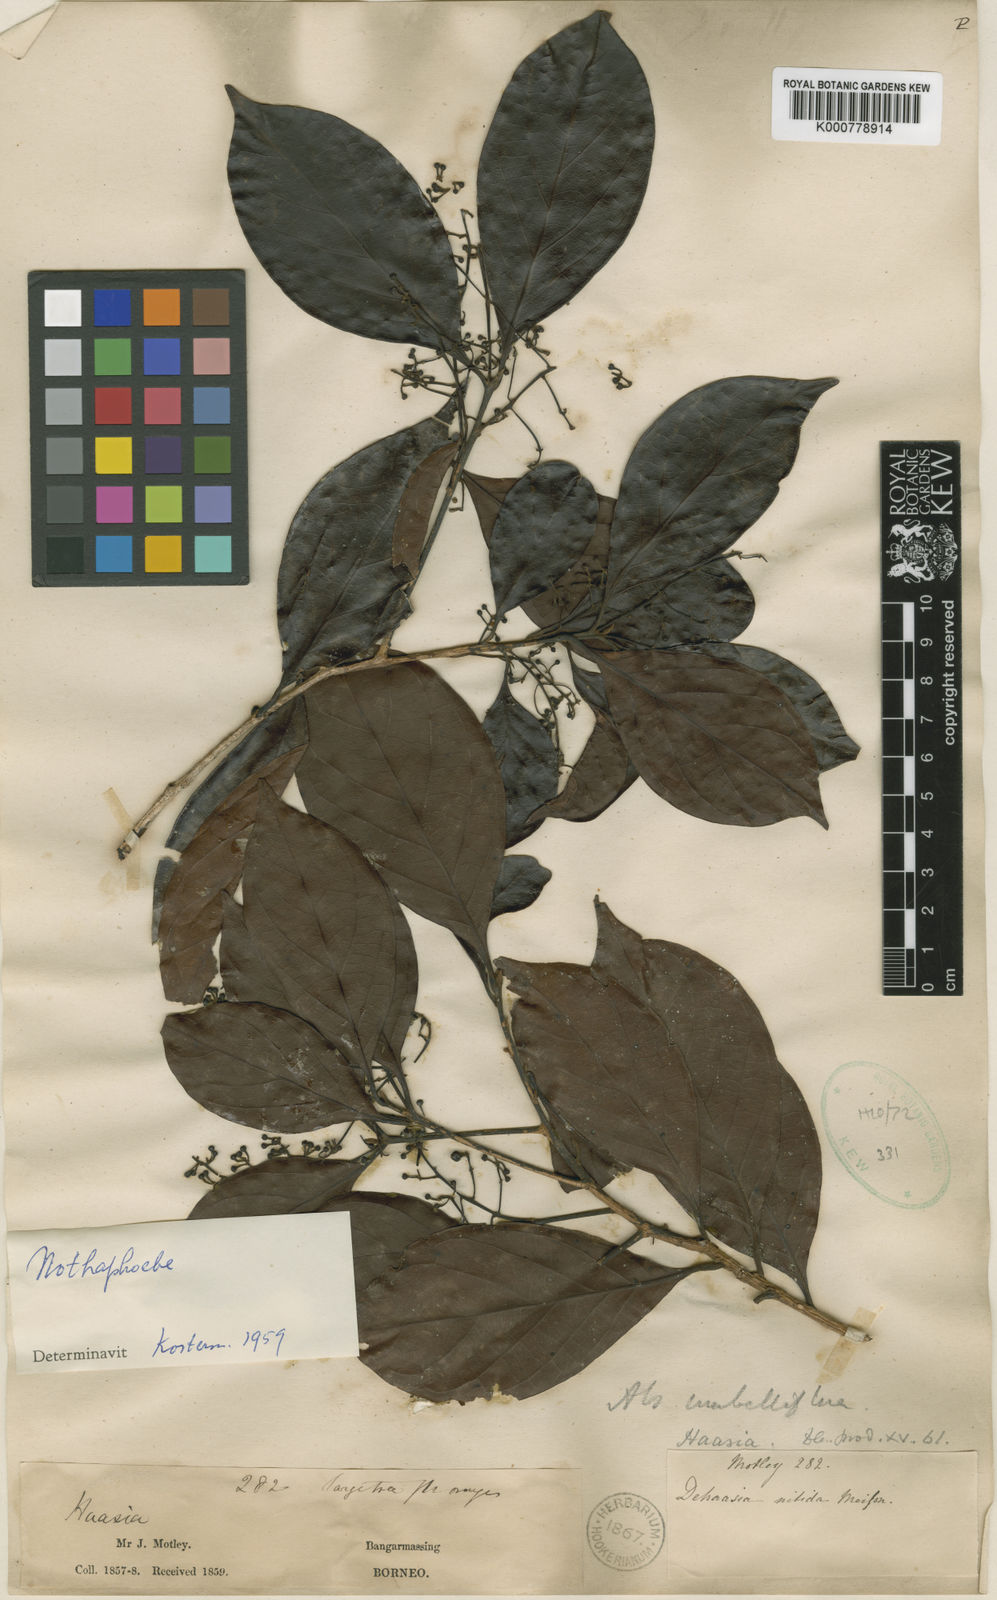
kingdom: Plantae
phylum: Tracheophyta
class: Magnoliopsida
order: Laurales
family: Lauraceae
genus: Nothaphoebe
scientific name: Nothaphoebe
